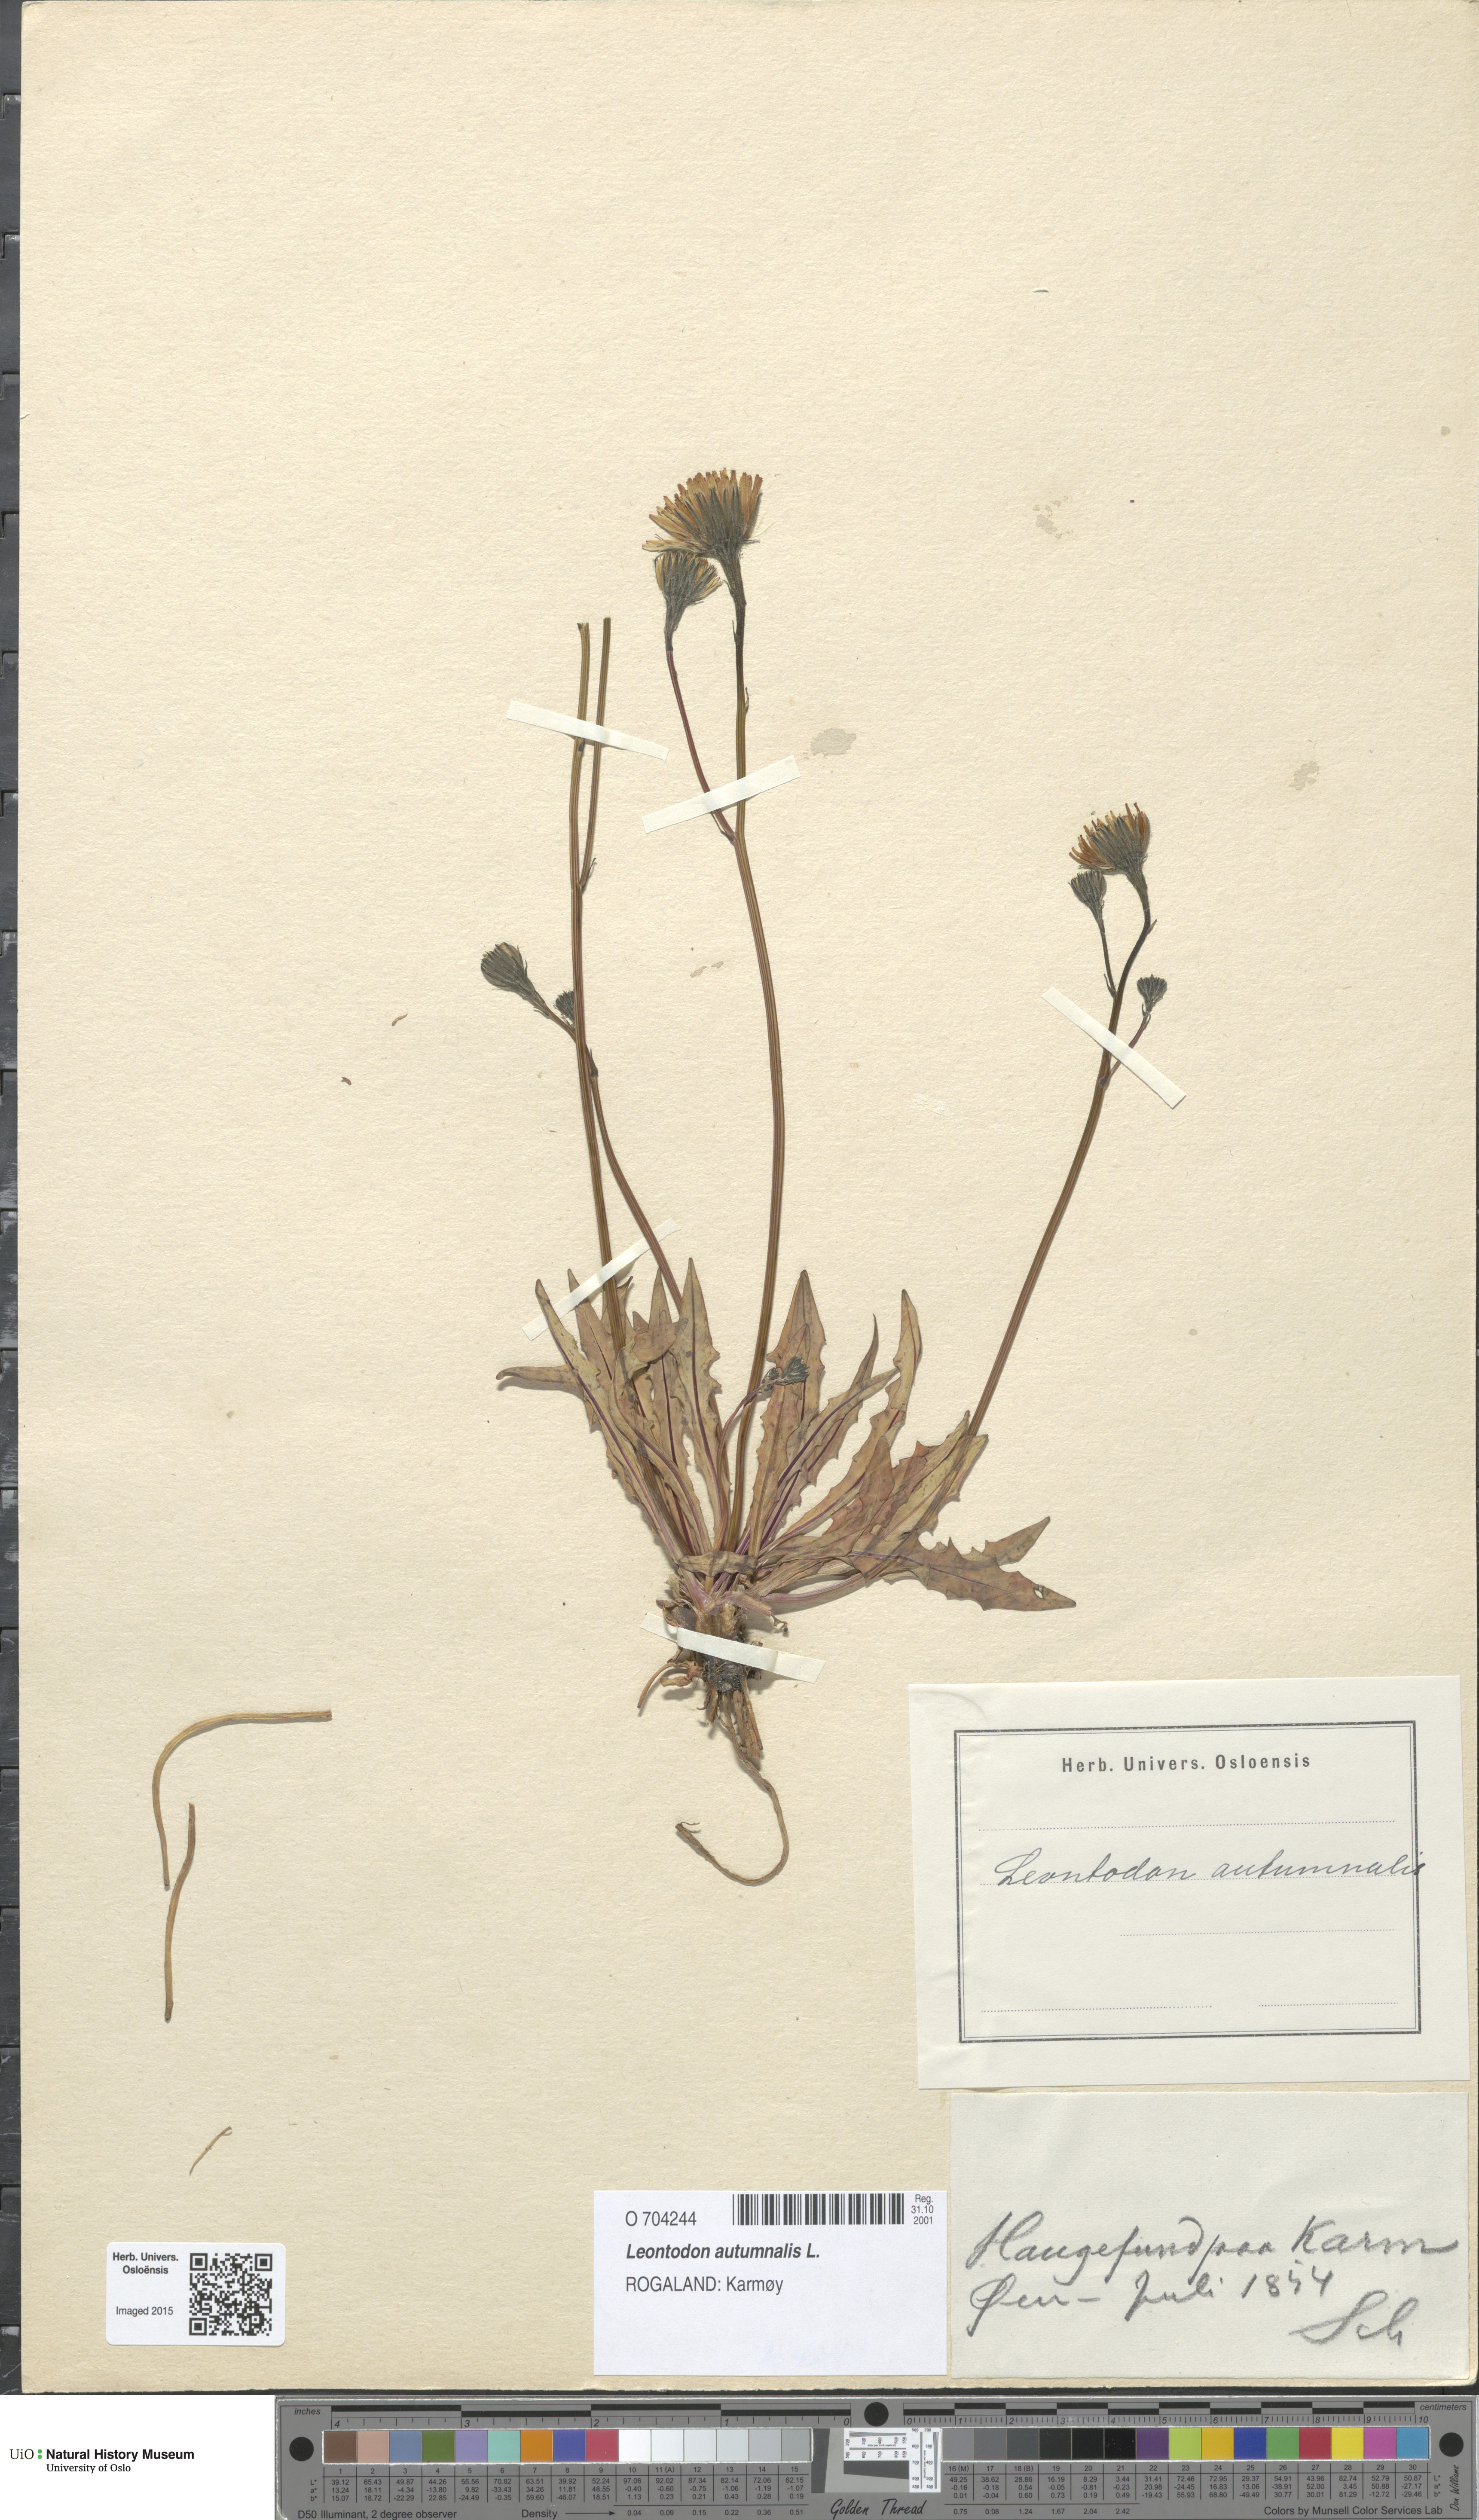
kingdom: Plantae
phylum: Tracheophyta
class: Magnoliopsida
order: Asterales
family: Asteraceae
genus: Scorzoneroides
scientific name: Scorzoneroides autumnalis
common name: Autumn hawkbit
